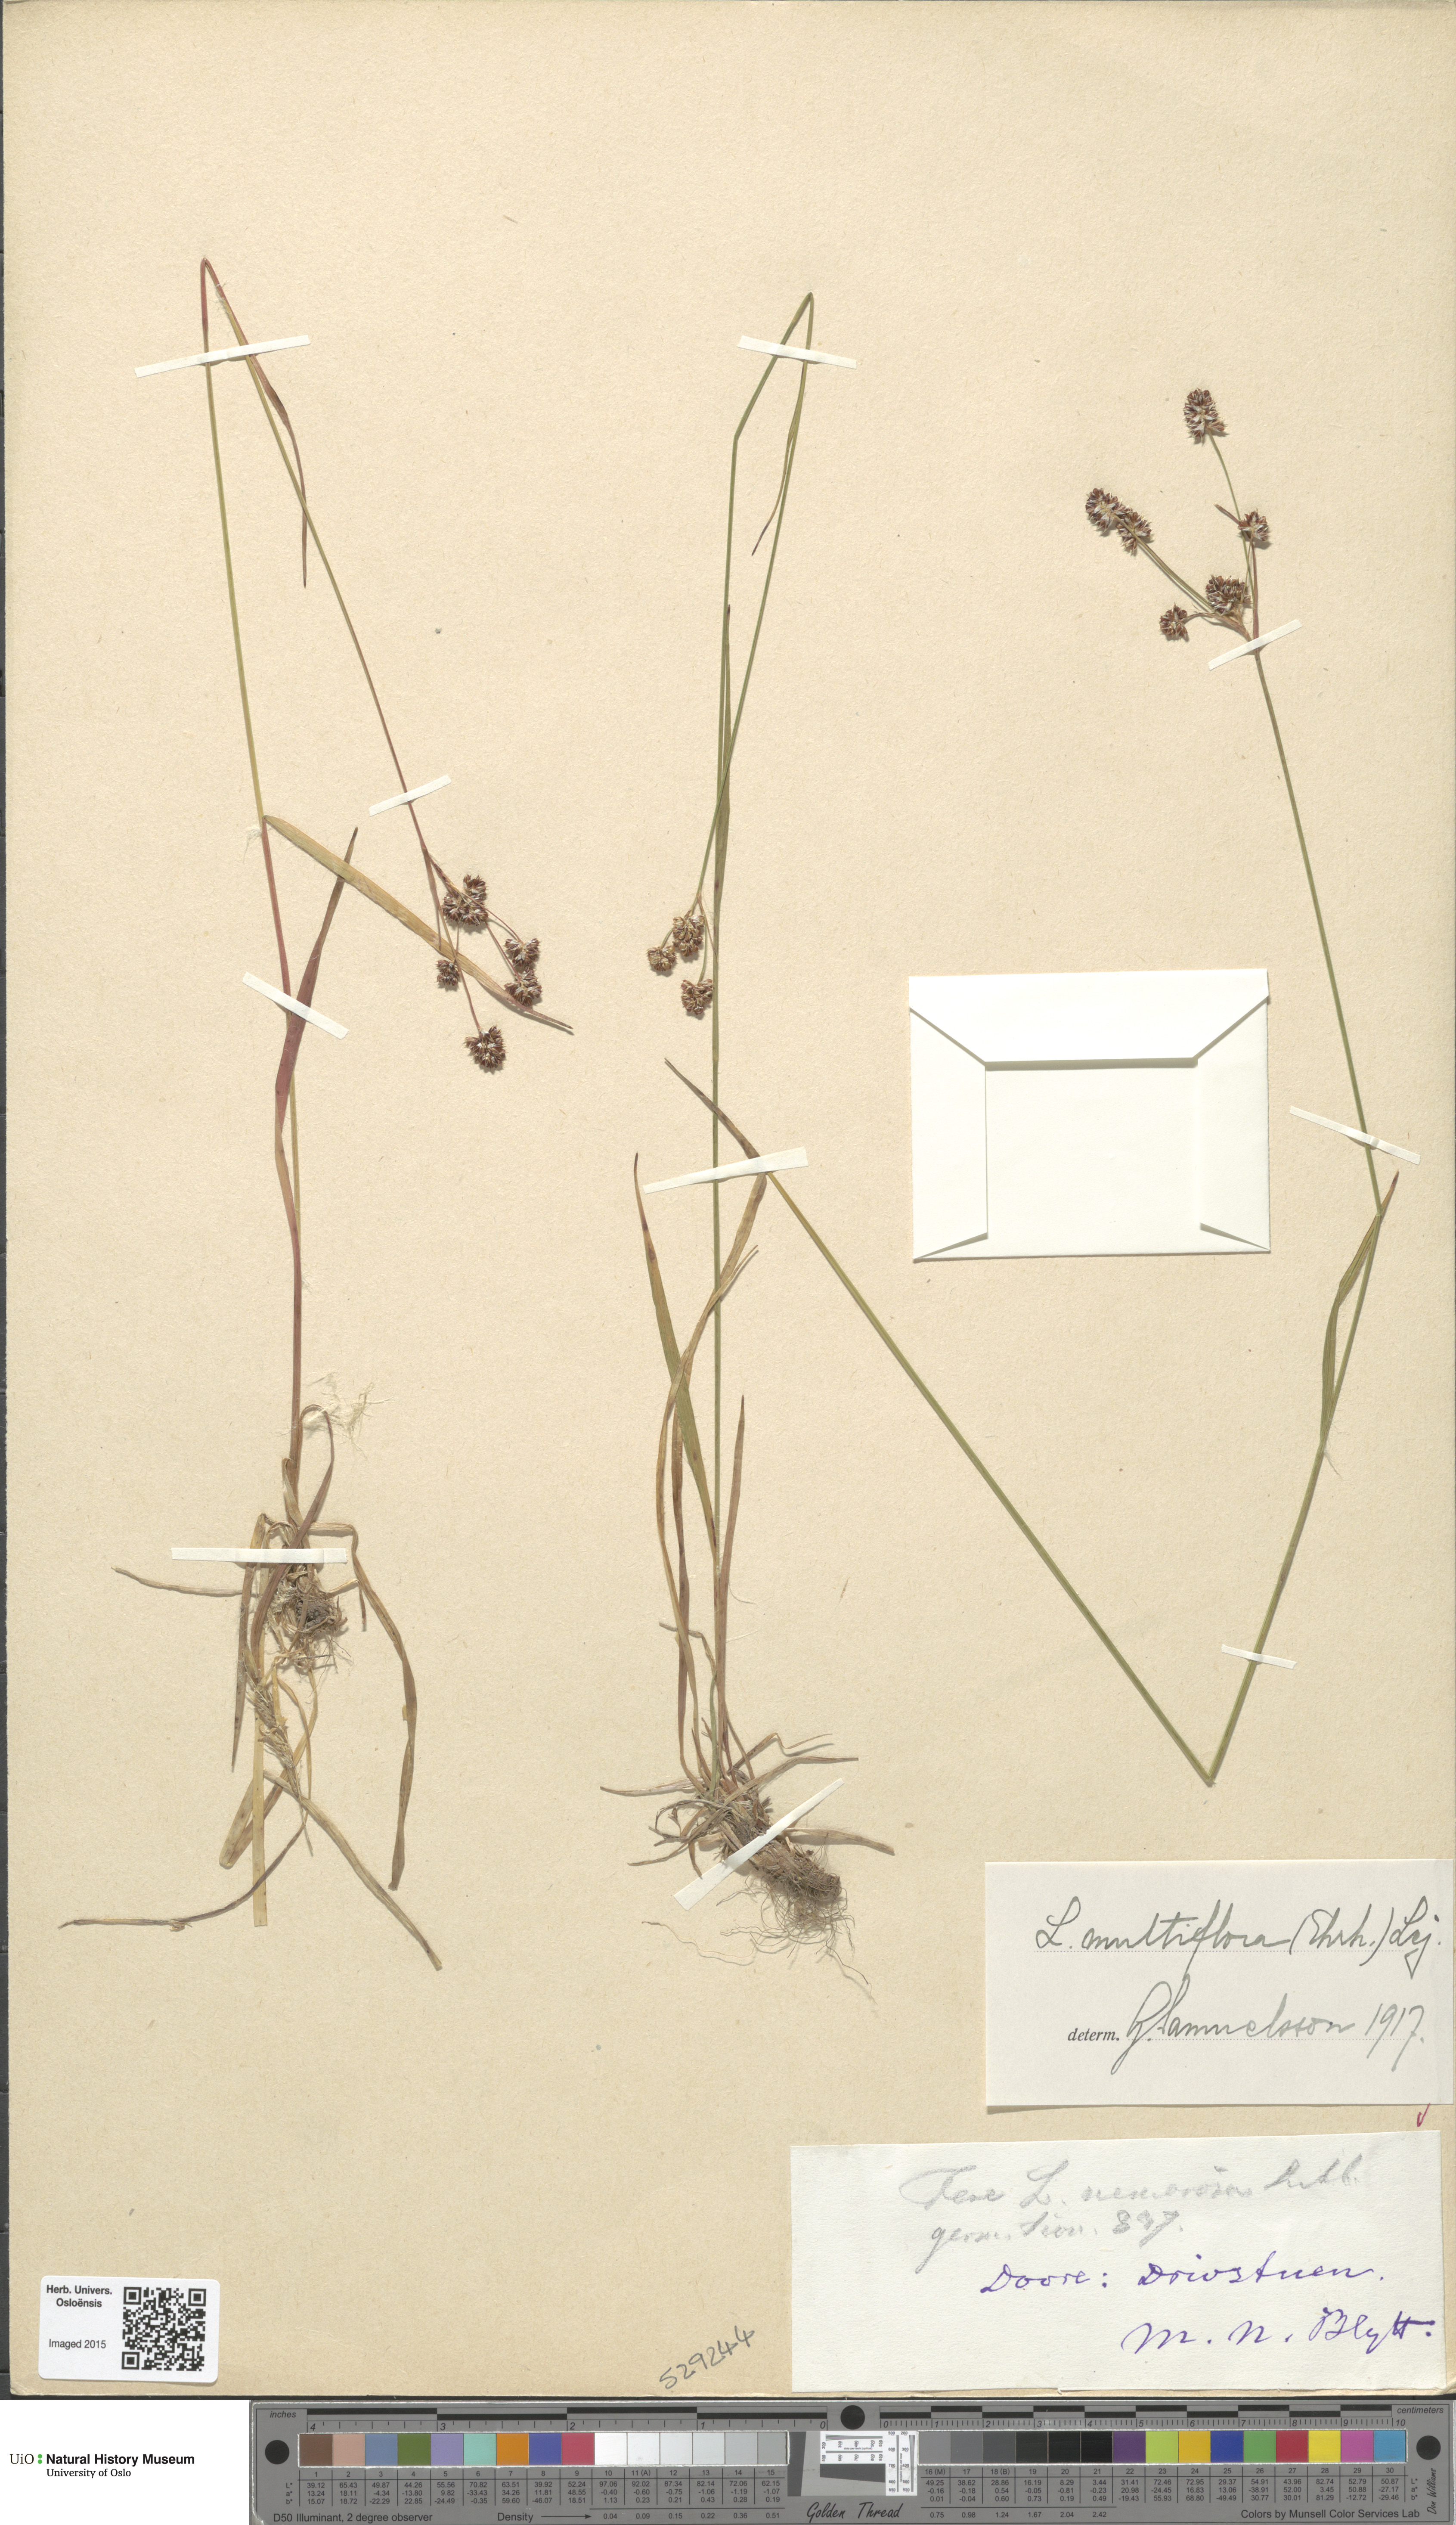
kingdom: Plantae
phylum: Tracheophyta
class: Liliopsida
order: Poales
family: Juncaceae
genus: Luzula
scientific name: Luzula multiflora
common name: Heath wood-rush
